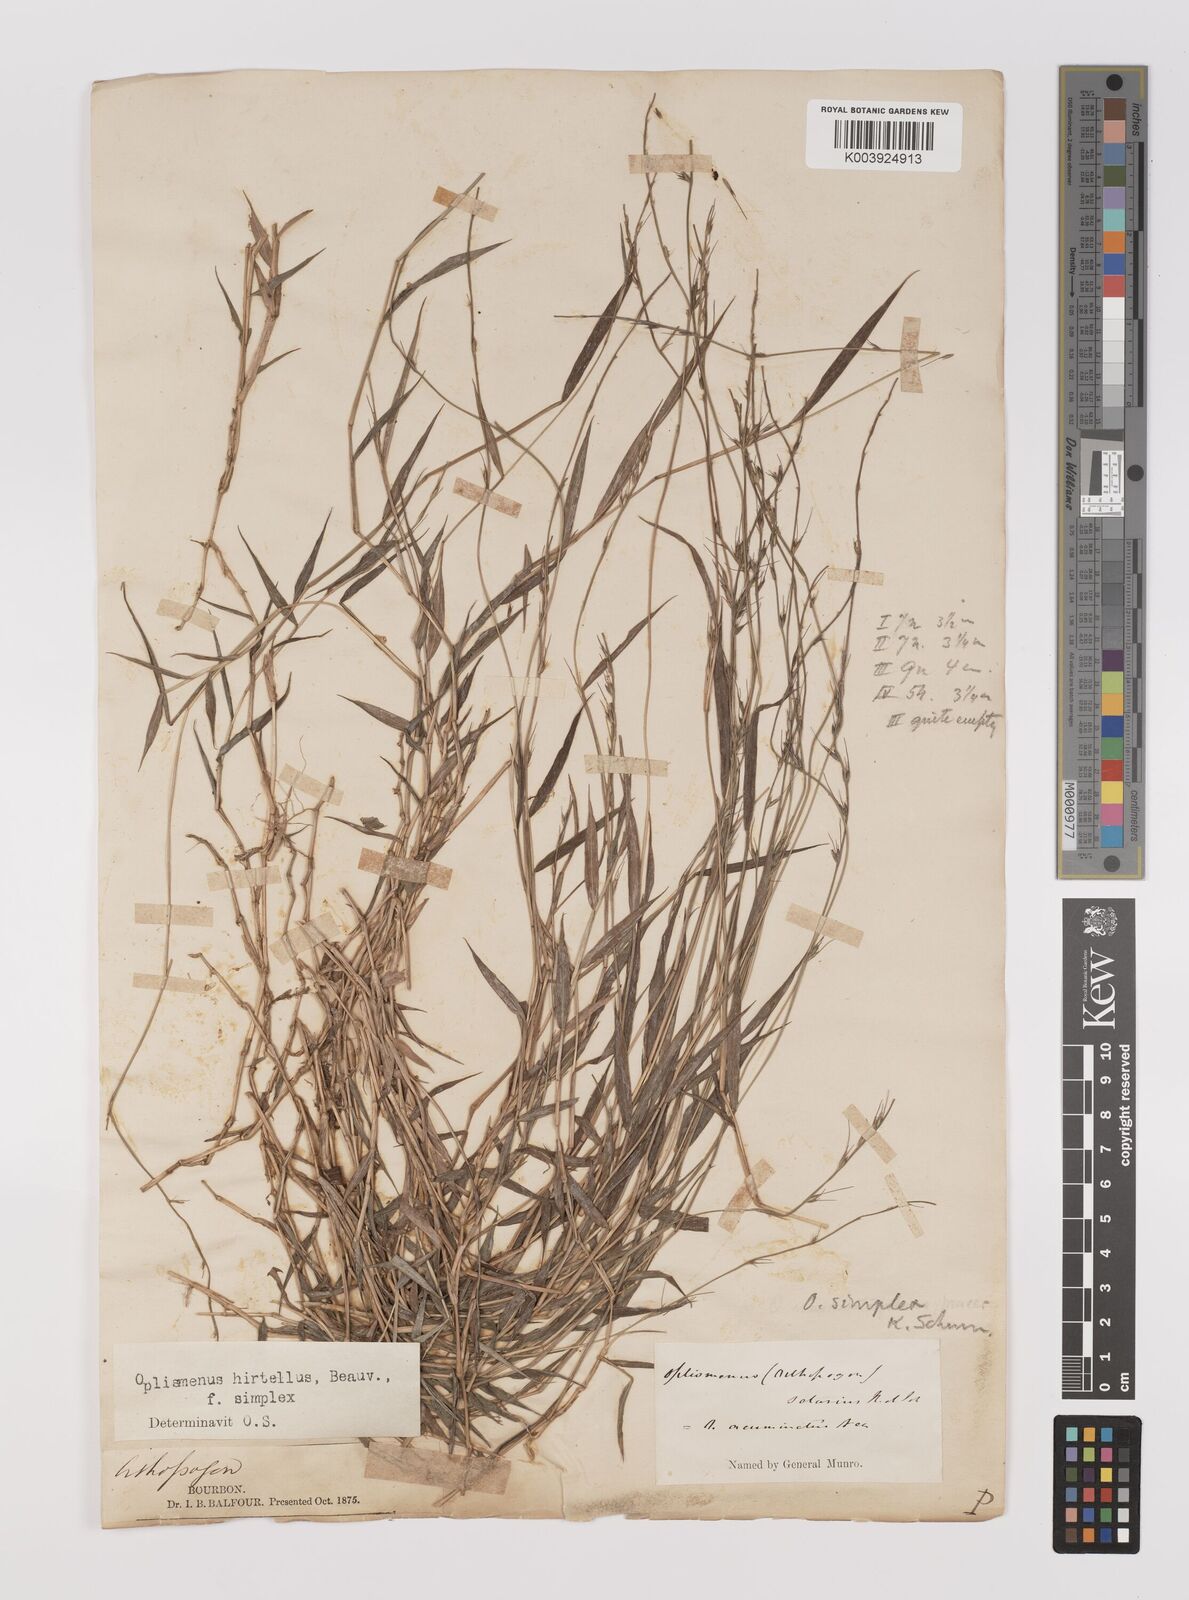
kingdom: Plantae
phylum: Tracheophyta
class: Liliopsida
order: Poales
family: Poaceae
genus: Oplismenus
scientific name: Oplismenus undulatifolius
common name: Wavyleaf basketgrass
